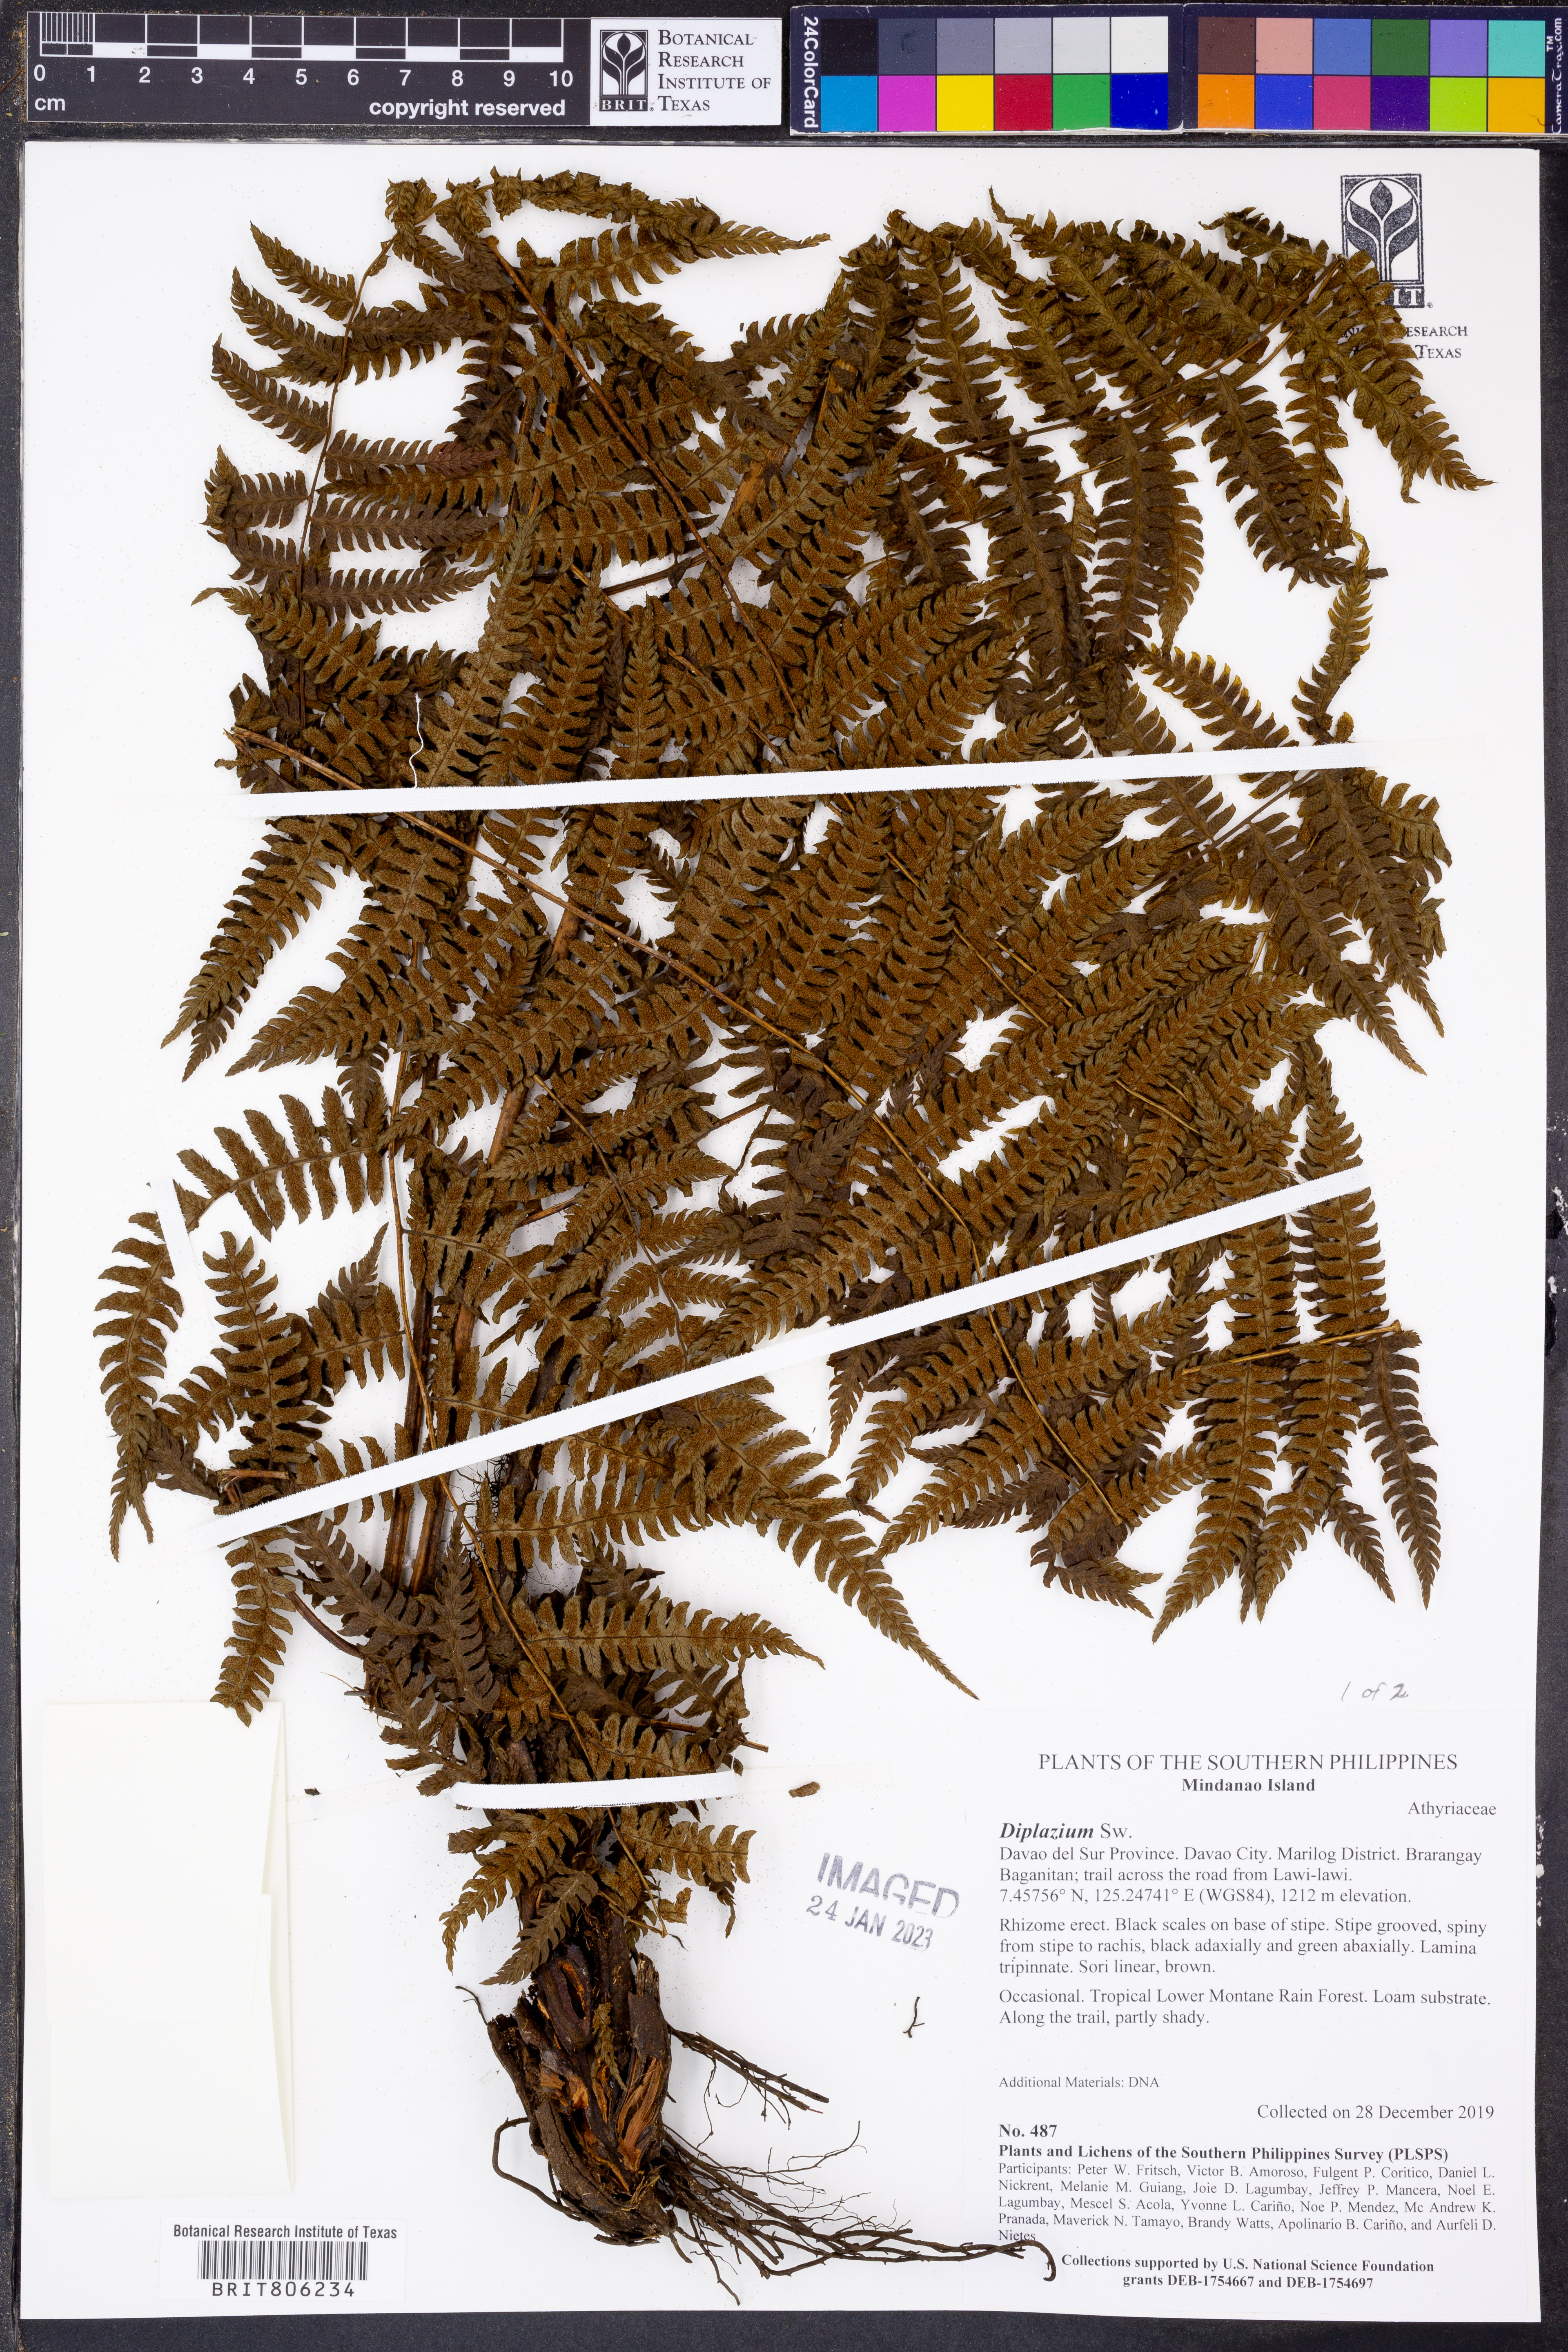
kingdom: Plantae
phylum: Tracheophyta
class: Polypodiopsida
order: Polypodiales
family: Athyriaceae
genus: Diplazium
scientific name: Diplazium
